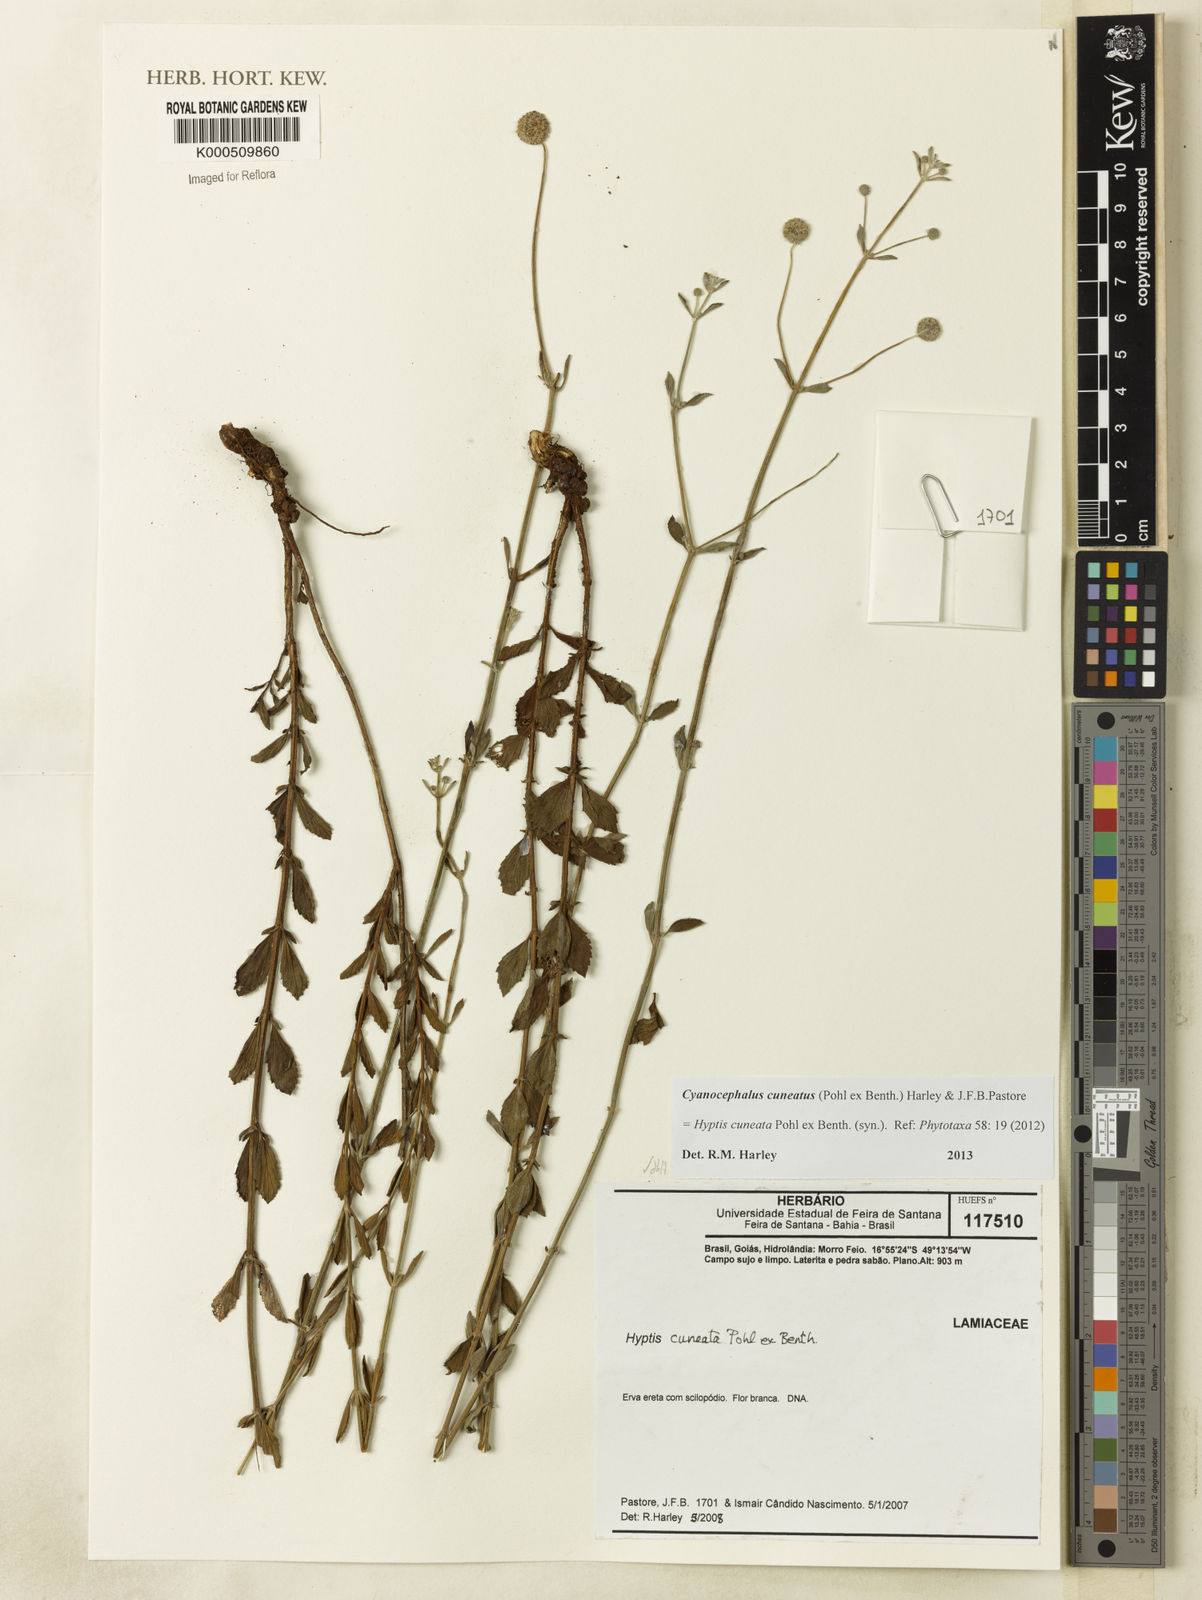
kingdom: Plantae
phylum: Tracheophyta
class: Magnoliopsida
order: Lamiales
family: Lamiaceae
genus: Cyanocephalus
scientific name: Cyanocephalus cuneatus
